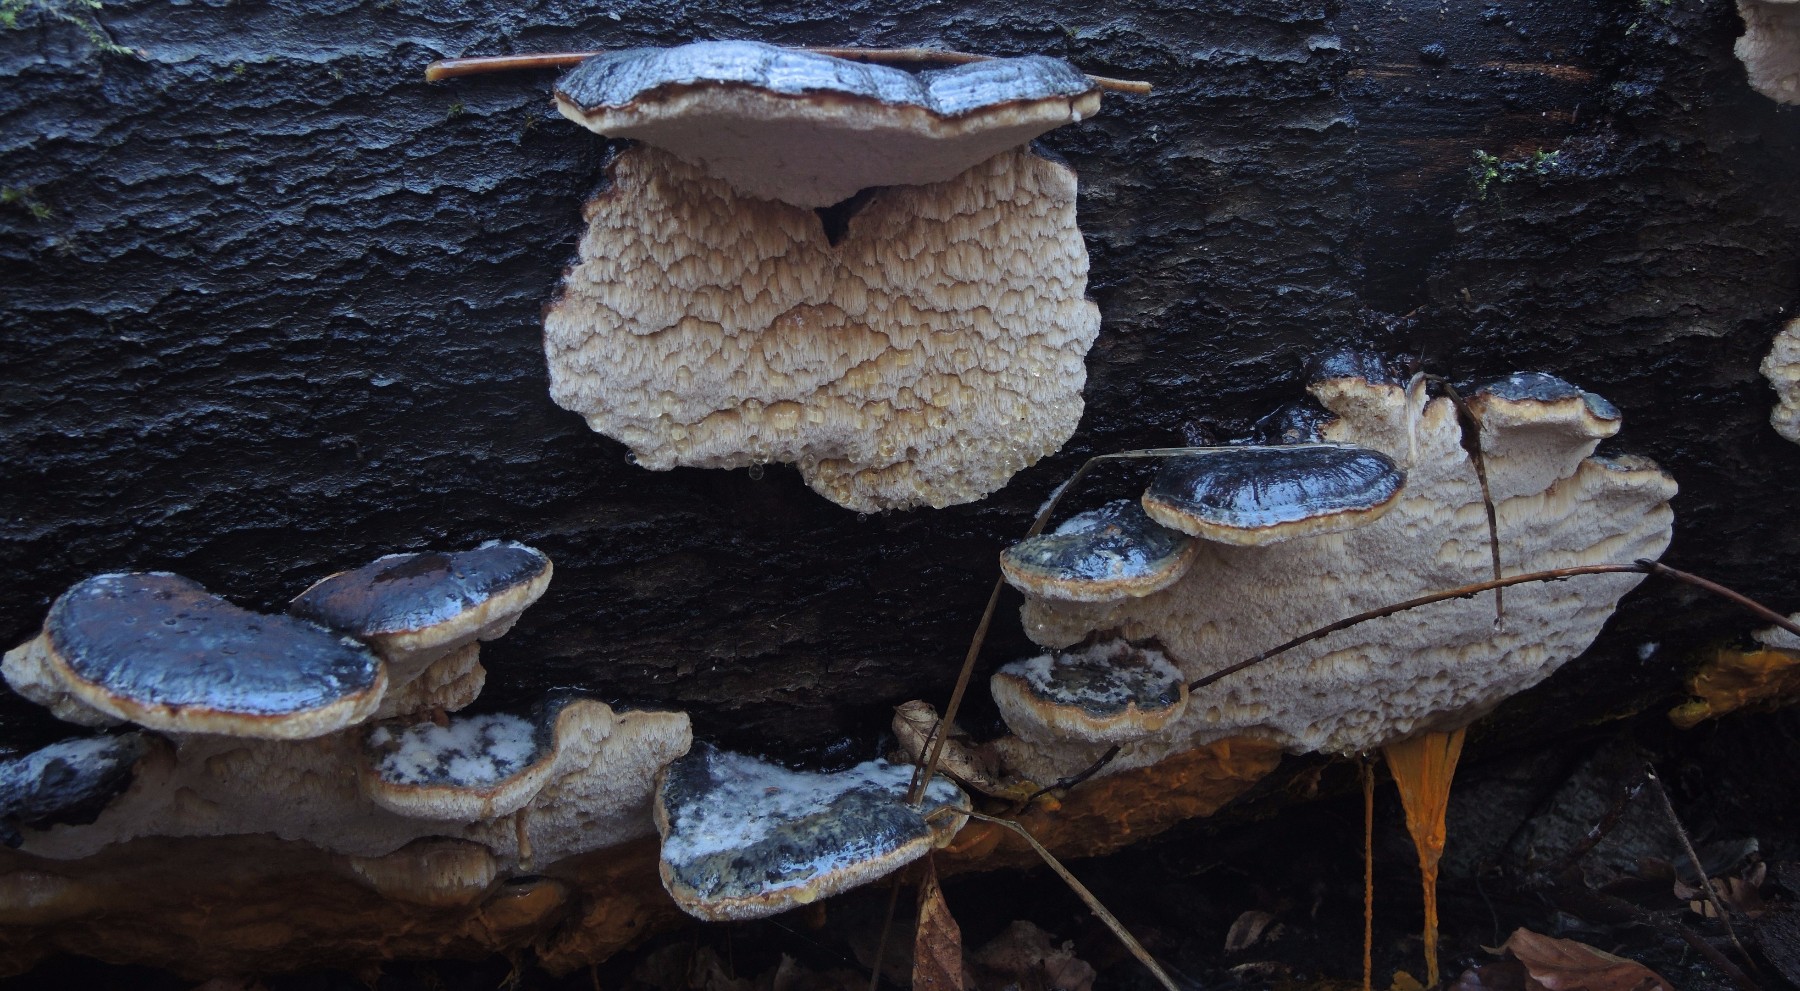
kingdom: Fungi
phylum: Basidiomycota
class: Agaricomycetes
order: Polyporales
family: Ischnodermataceae
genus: Ischnoderma
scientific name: Ischnoderma resinosum
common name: løv-tjæreporesvamp
